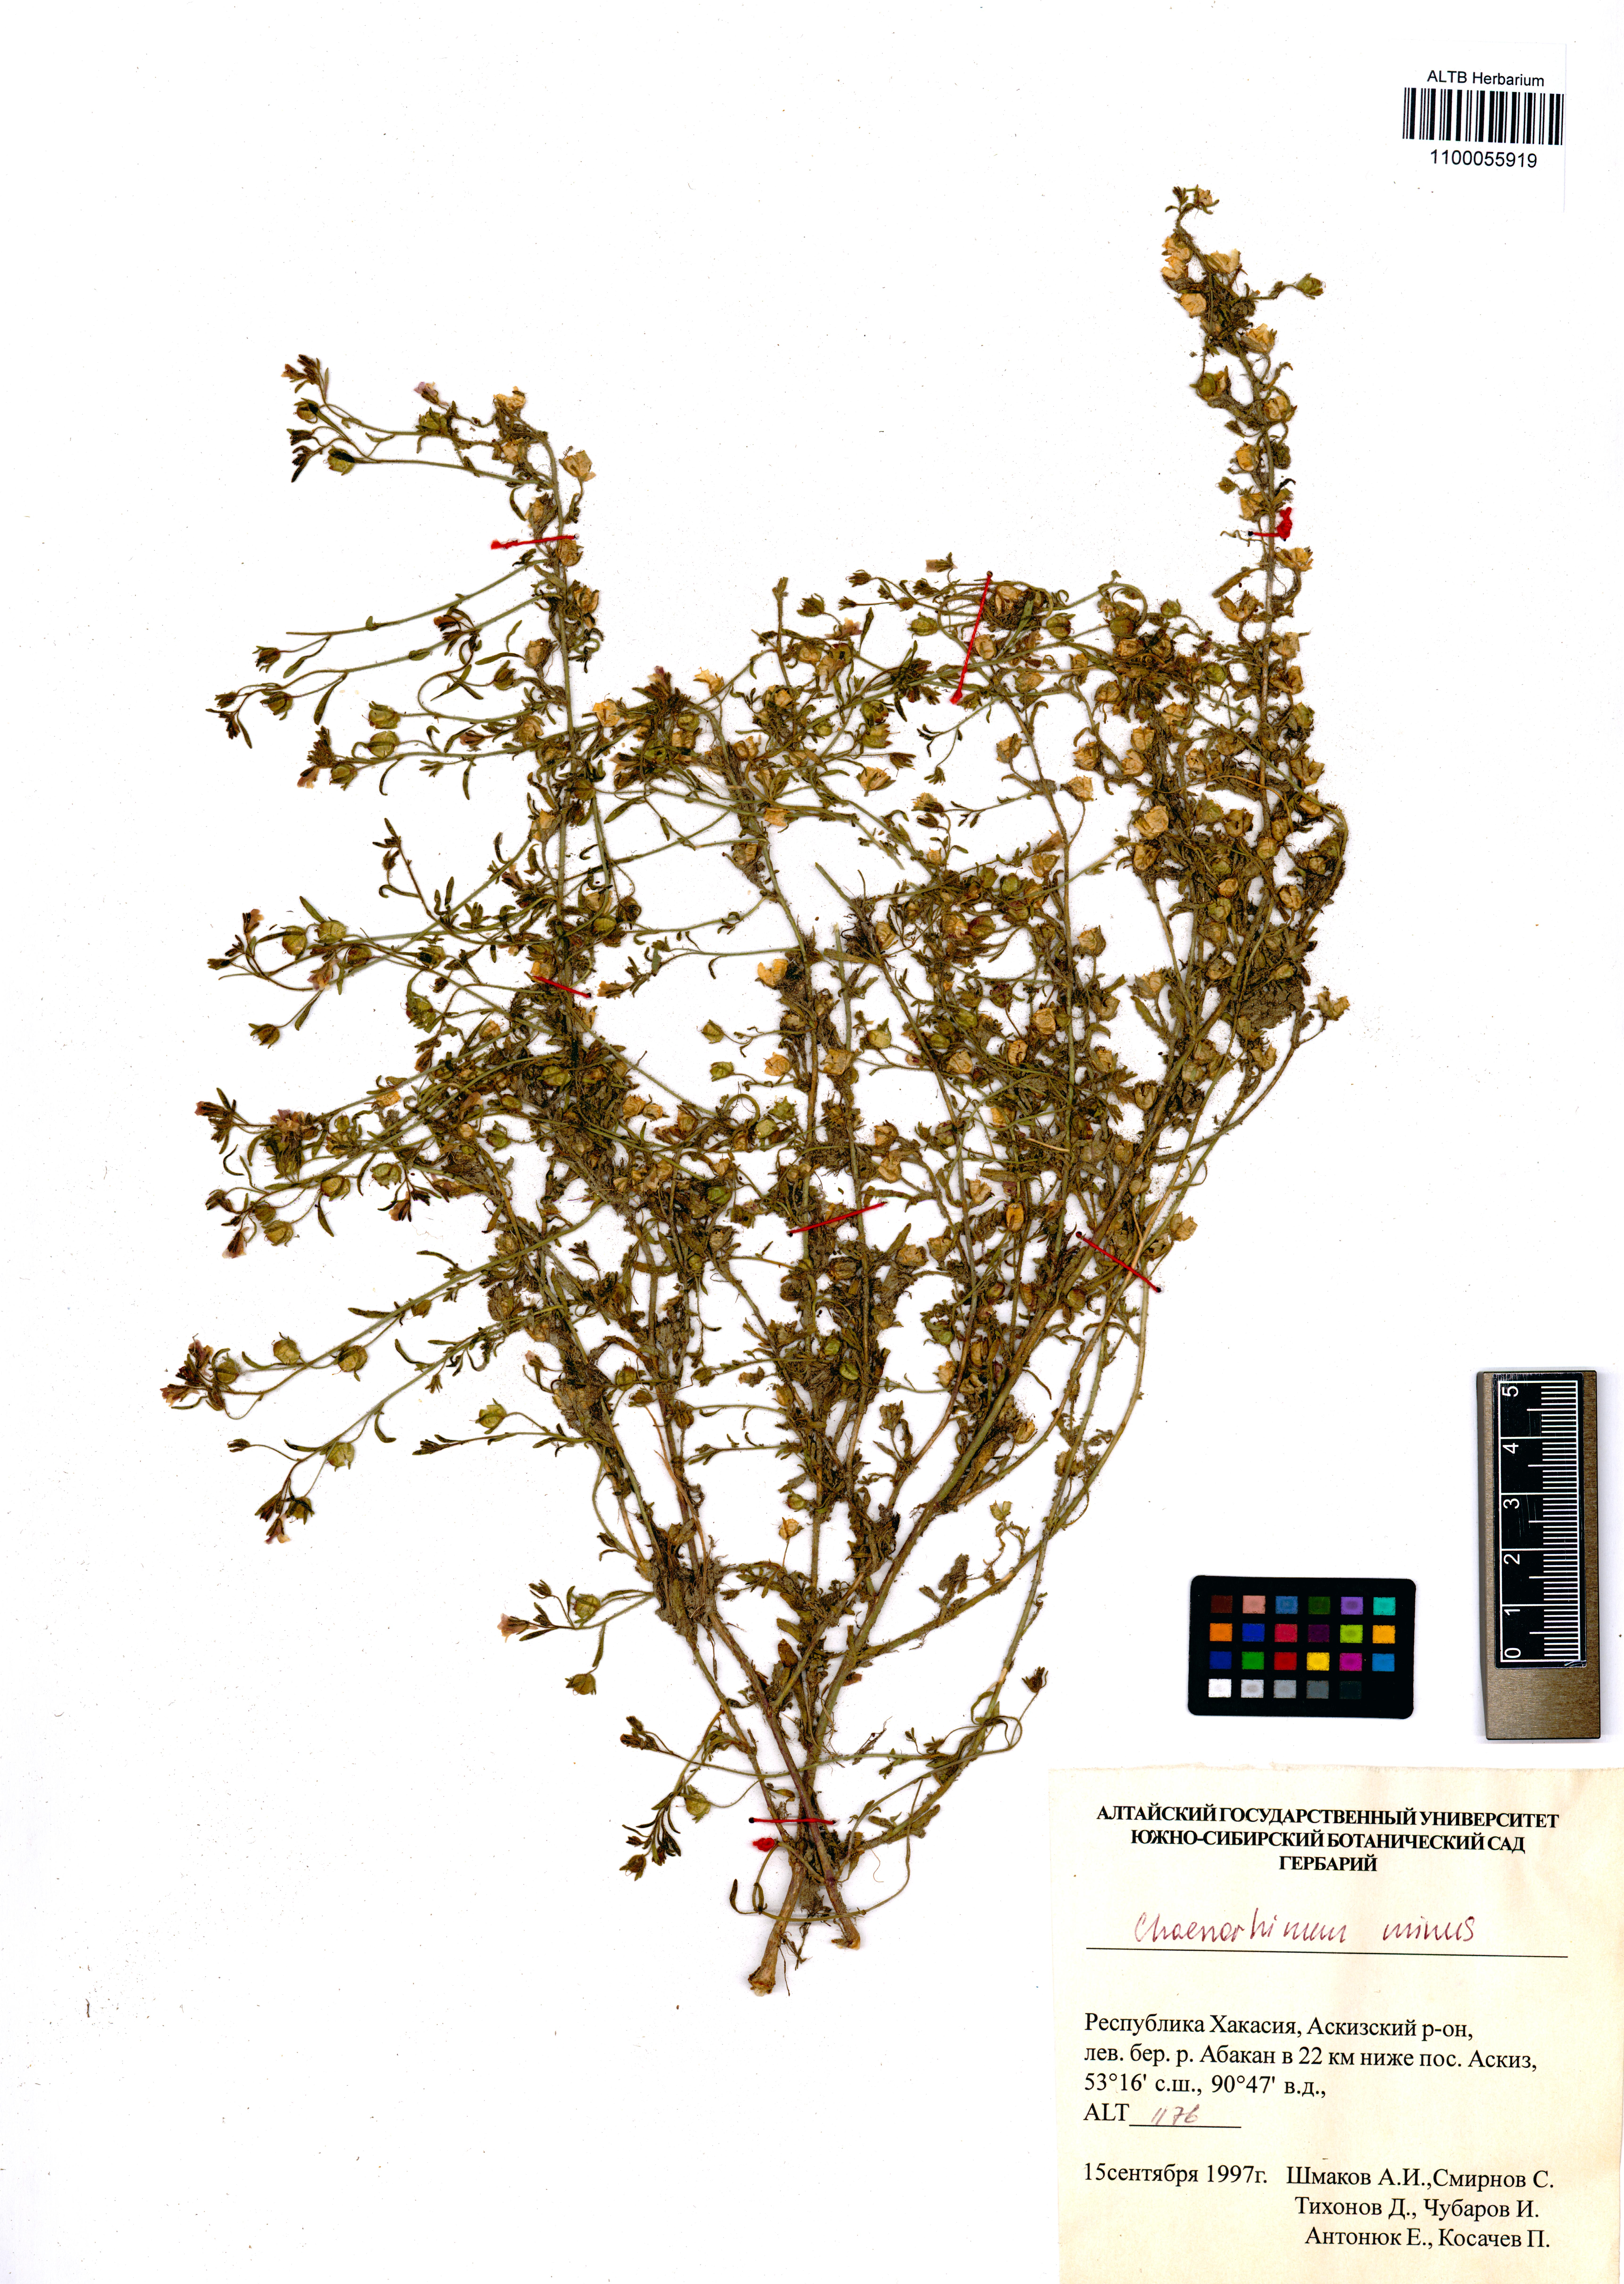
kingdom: Plantae
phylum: Tracheophyta
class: Magnoliopsida
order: Lamiales
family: Plantaginaceae
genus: Chaenorhinum
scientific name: Chaenorhinum minus
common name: Dwarf snapdragon
